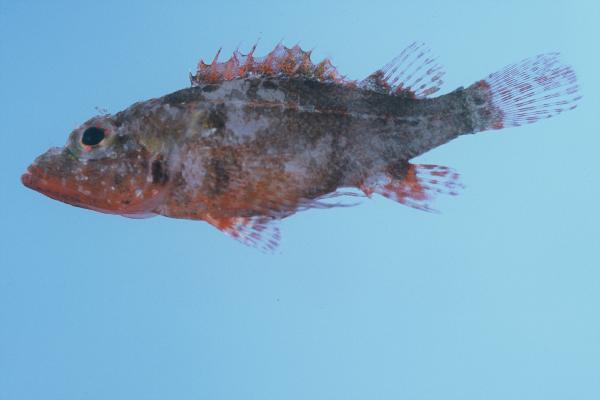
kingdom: Animalia
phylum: Chordata
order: Scorpaeniformes
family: Scorpaenidae
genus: Scorpaenodes
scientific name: Scorpaenodes minor
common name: Minor scorpionfish
